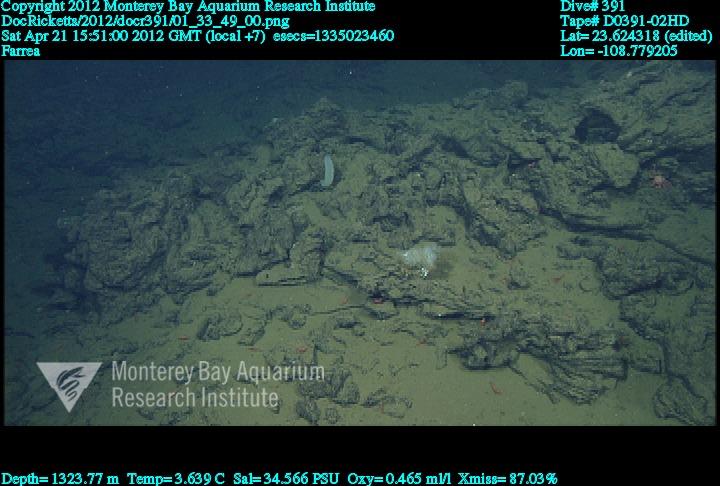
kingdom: Animalia
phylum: Porifera
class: Hexactinellida
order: Sceptrulophora
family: Farreidae
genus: Farrea
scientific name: Farrea
